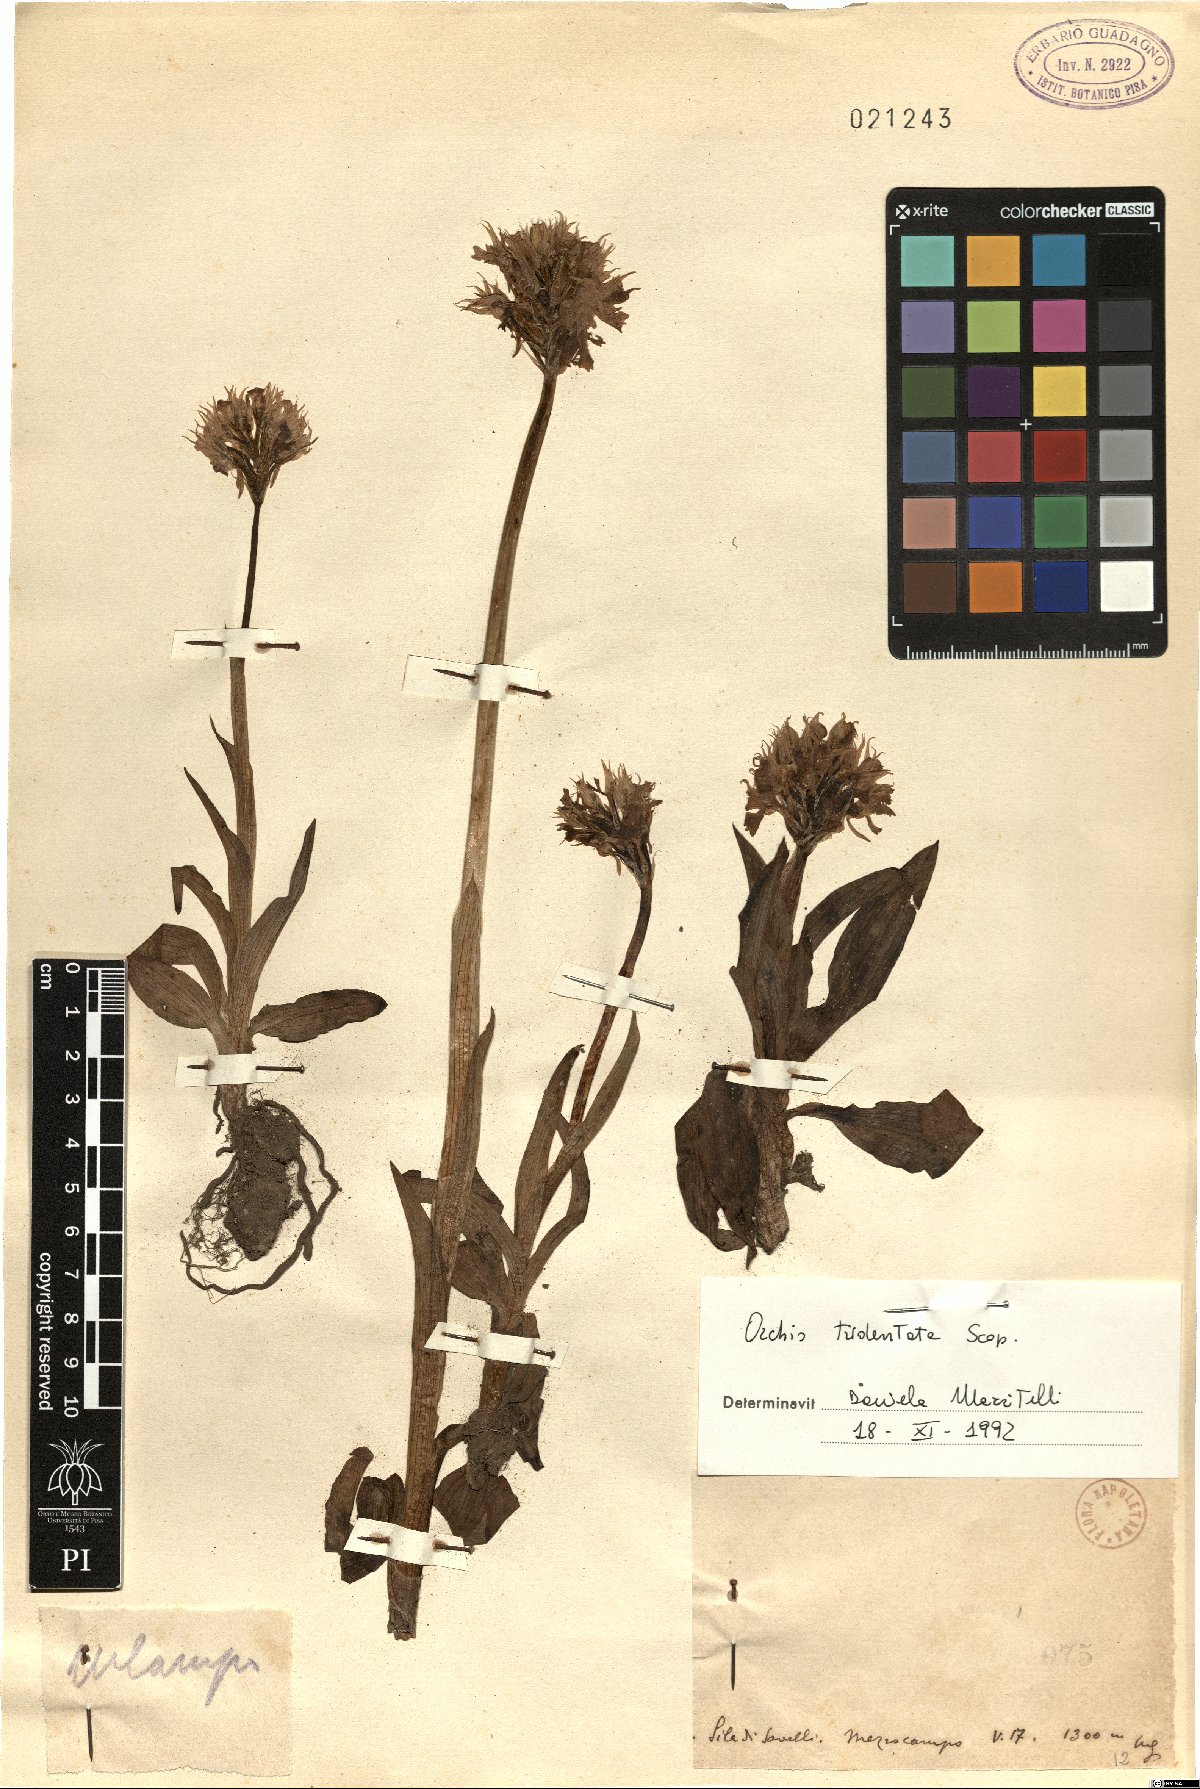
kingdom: Plantae
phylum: Tracheophyta
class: Liliopsida
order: Asparagales
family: Orchidaceae
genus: Neotinea
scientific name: Neotinea tridentata
